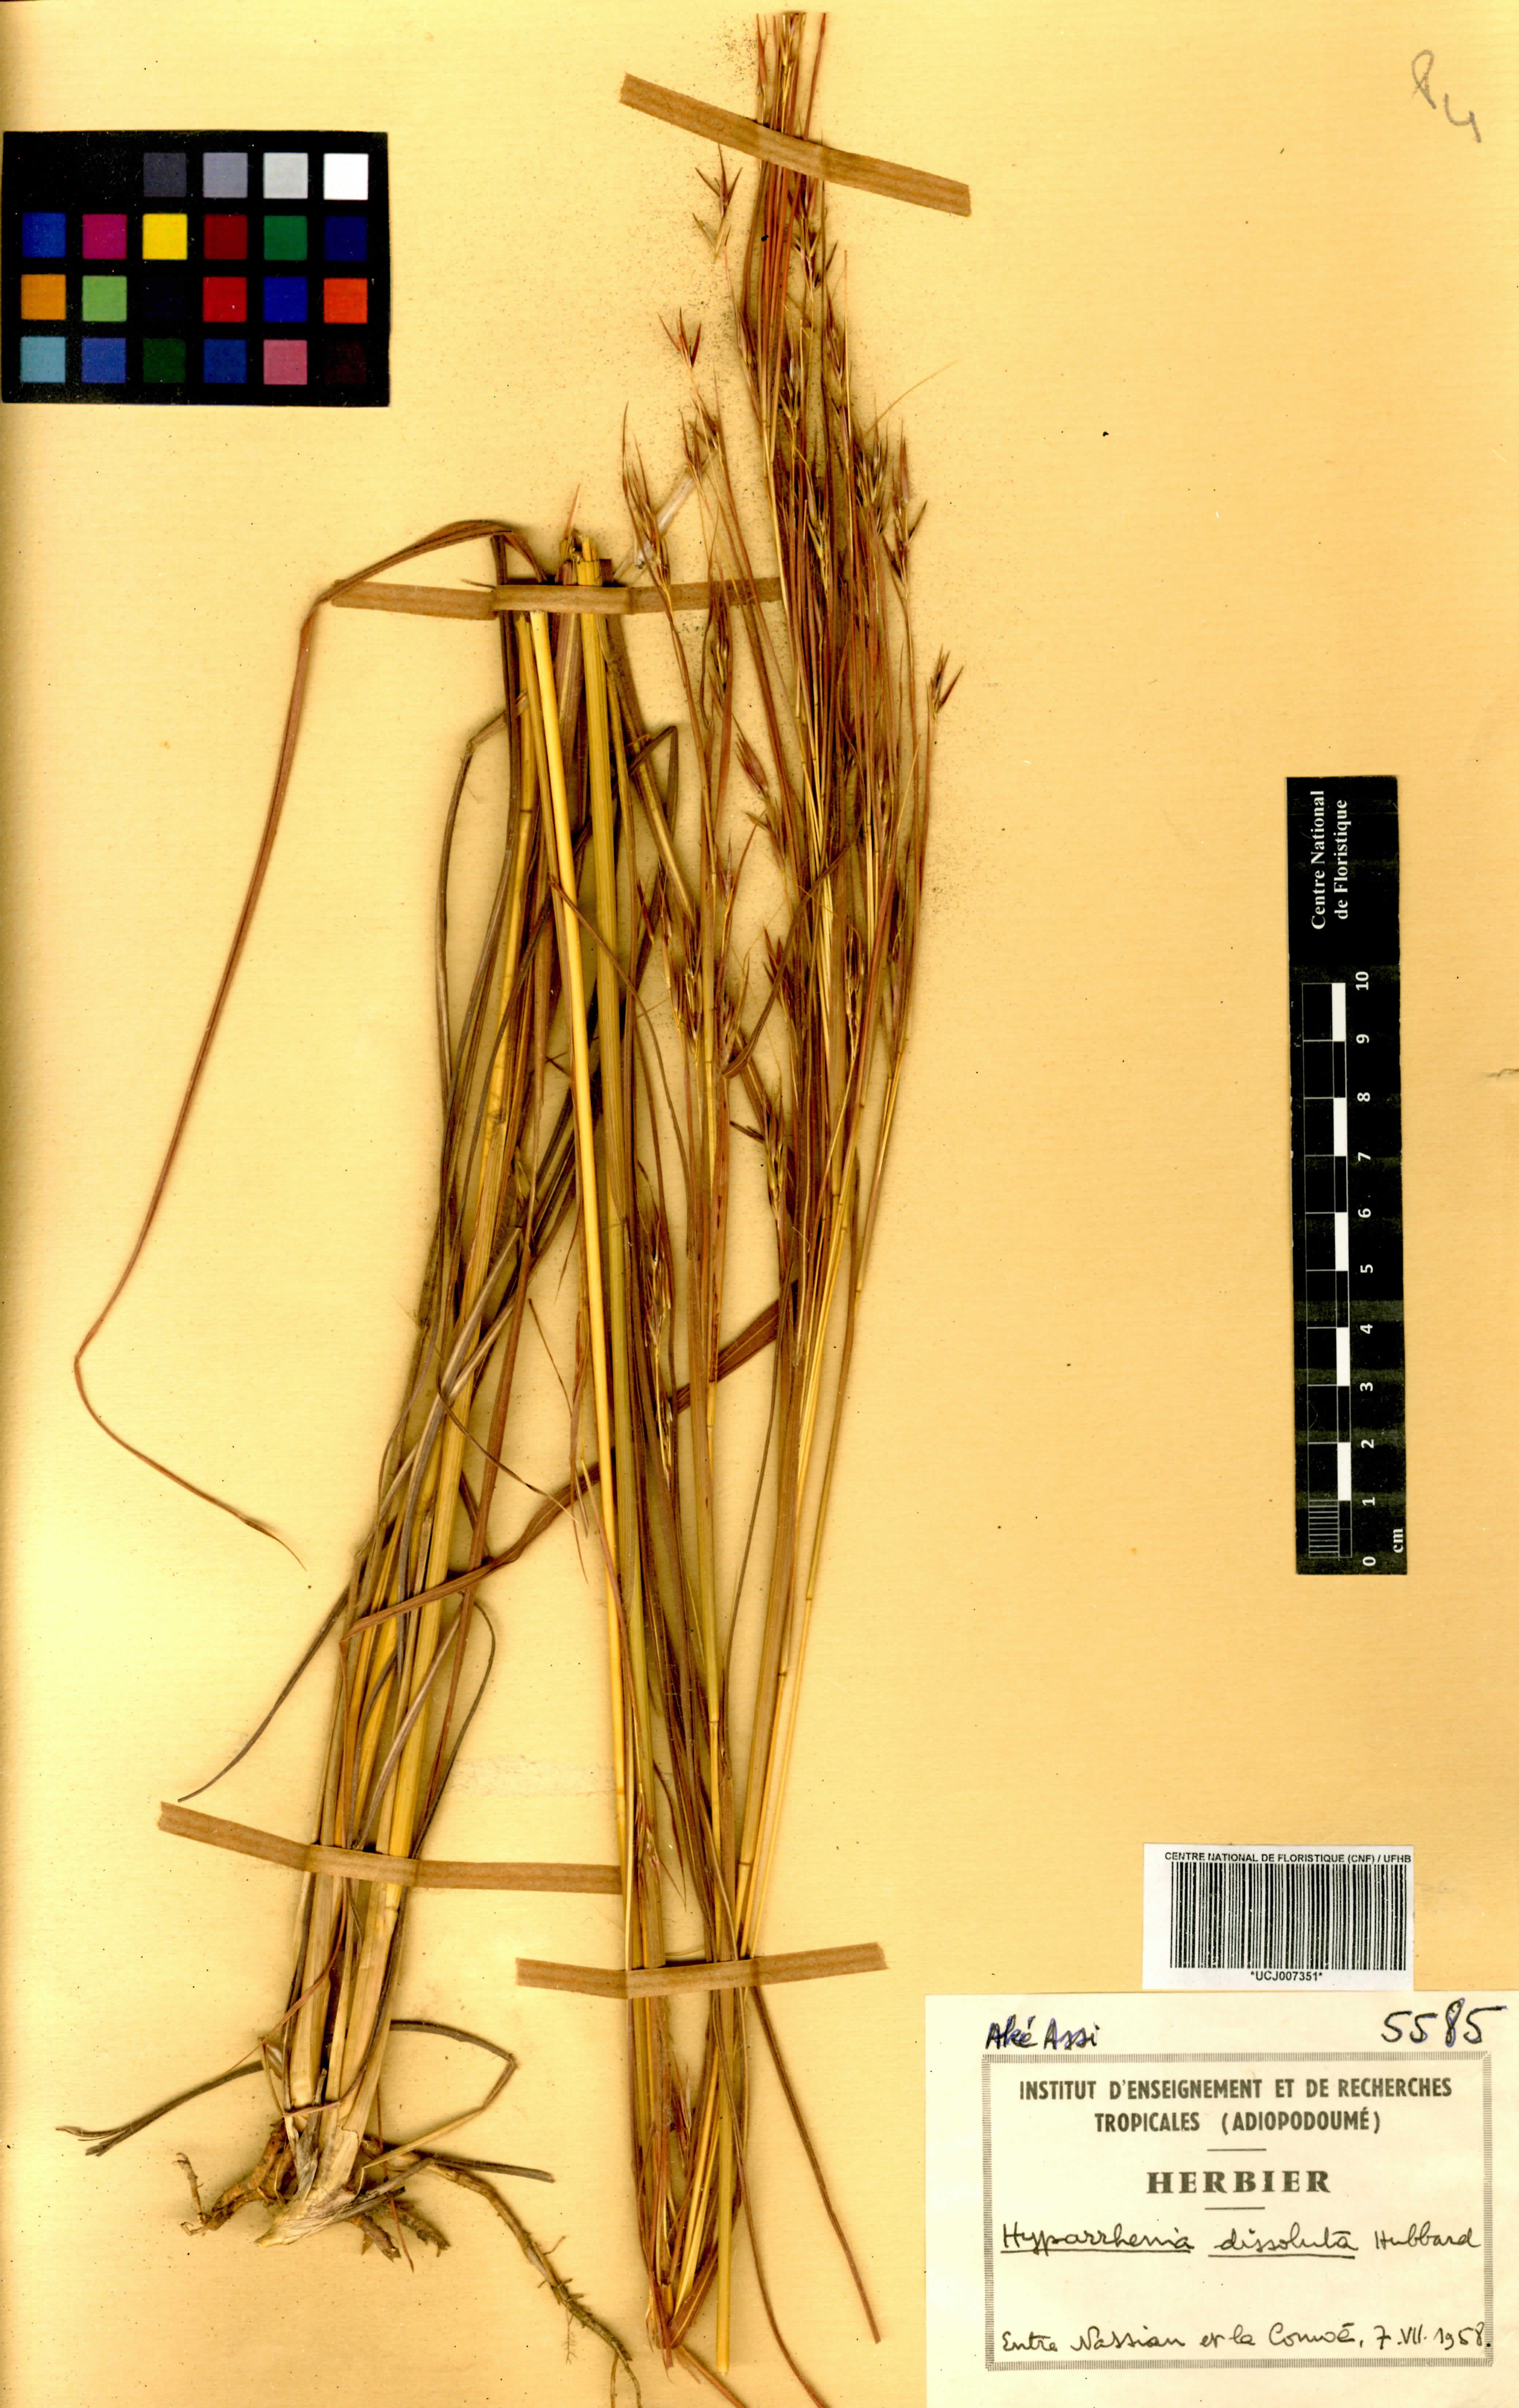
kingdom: Plantae
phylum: Tracheophyta
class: Liliopsida
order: Poales
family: Poaceae
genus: Hyperthelia
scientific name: Hyperthelia dissoluta
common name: Yellow thatching grass
